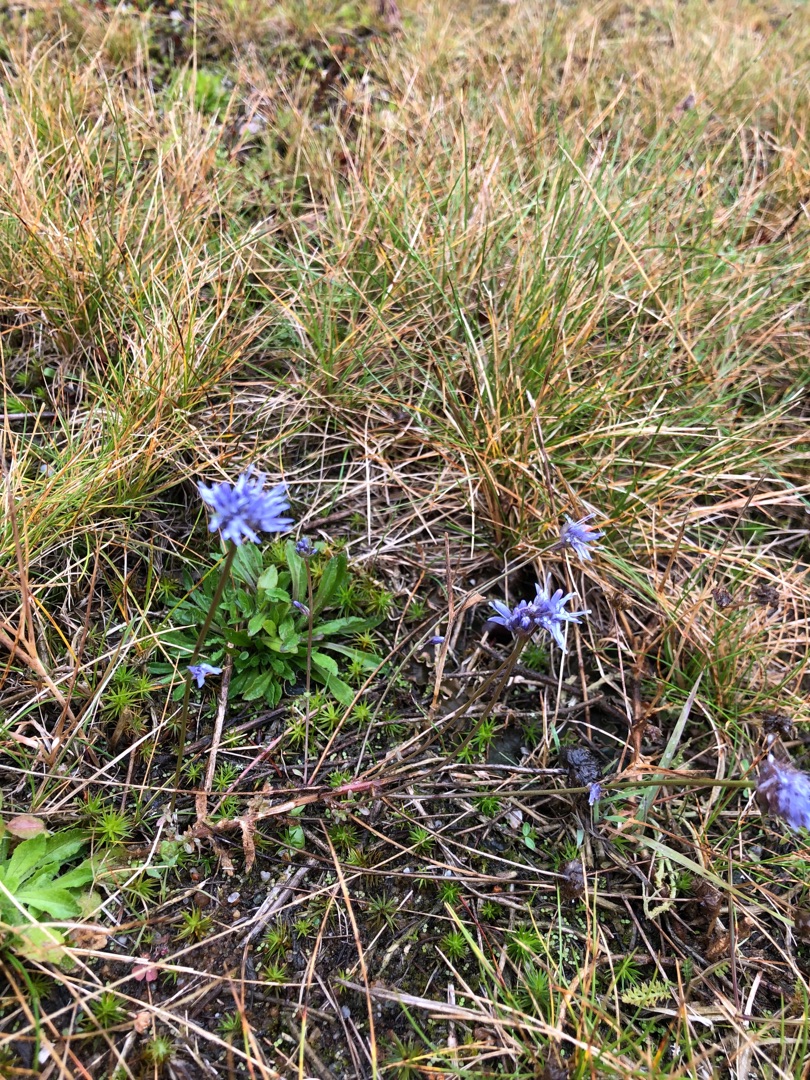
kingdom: Plantae
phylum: Tracheophyta
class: Magnoliopsida
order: Asterales
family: Campanulaceae
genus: Jasione
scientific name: Jasione montana
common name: Blåmunke
